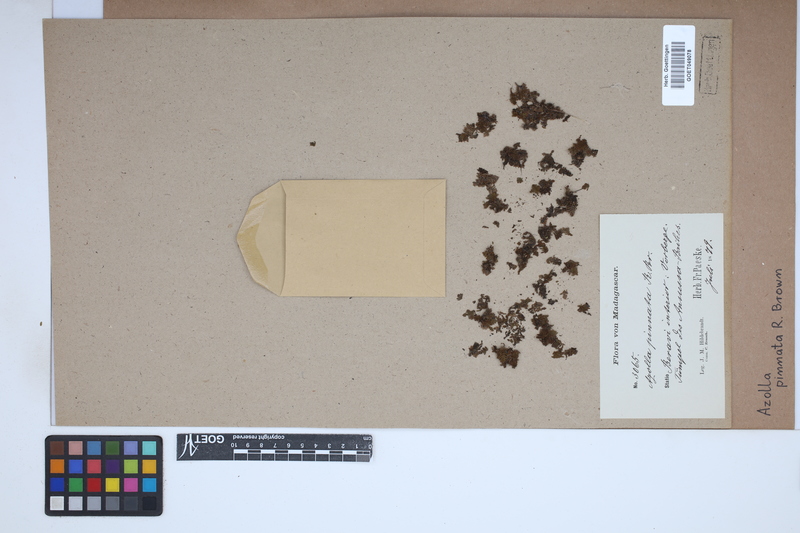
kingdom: Plantae
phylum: Tracheophyta
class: Polypodiopsida
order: Salviniales
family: Salviniaceae
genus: Azolla
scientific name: Azolla pinnata
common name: Ferny azolla
